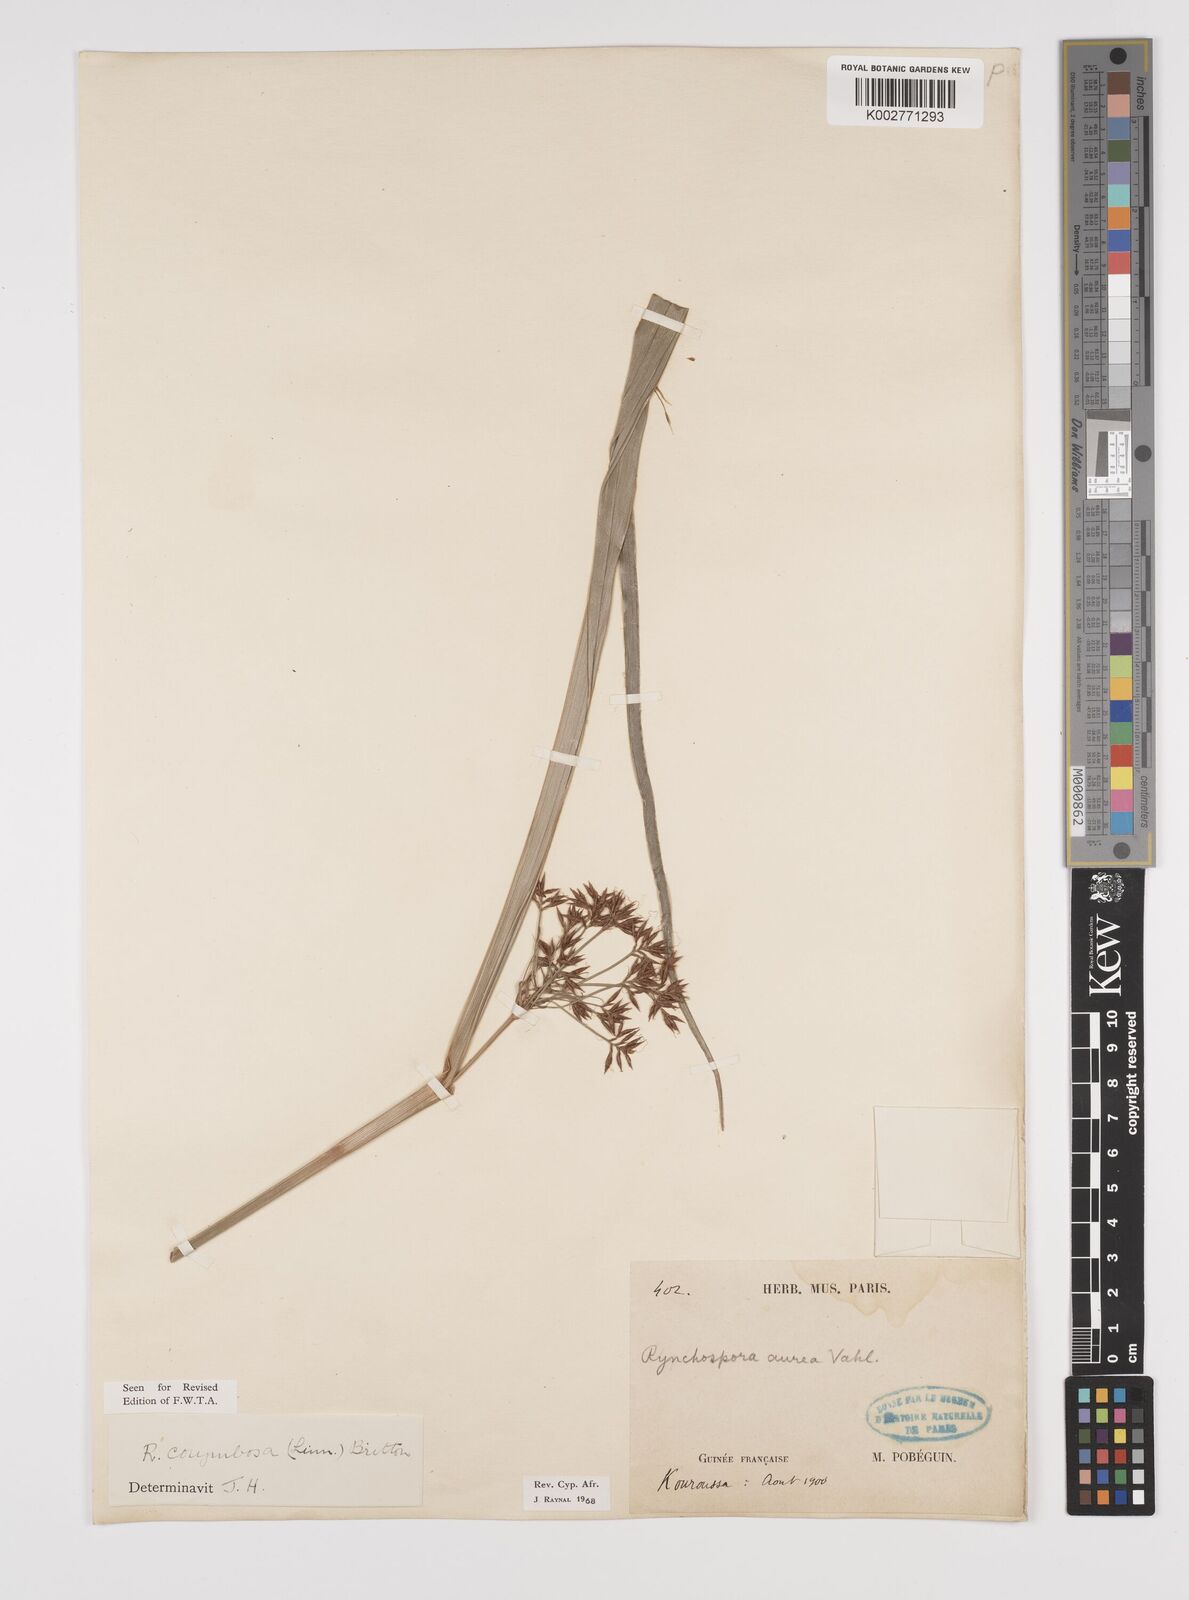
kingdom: Plantae
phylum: Tracheophyta
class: Liliopsida
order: Poales
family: Cyperaceae
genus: Rhynchospora
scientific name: Rhynchospora corymbosa
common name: Golden beak sedge
